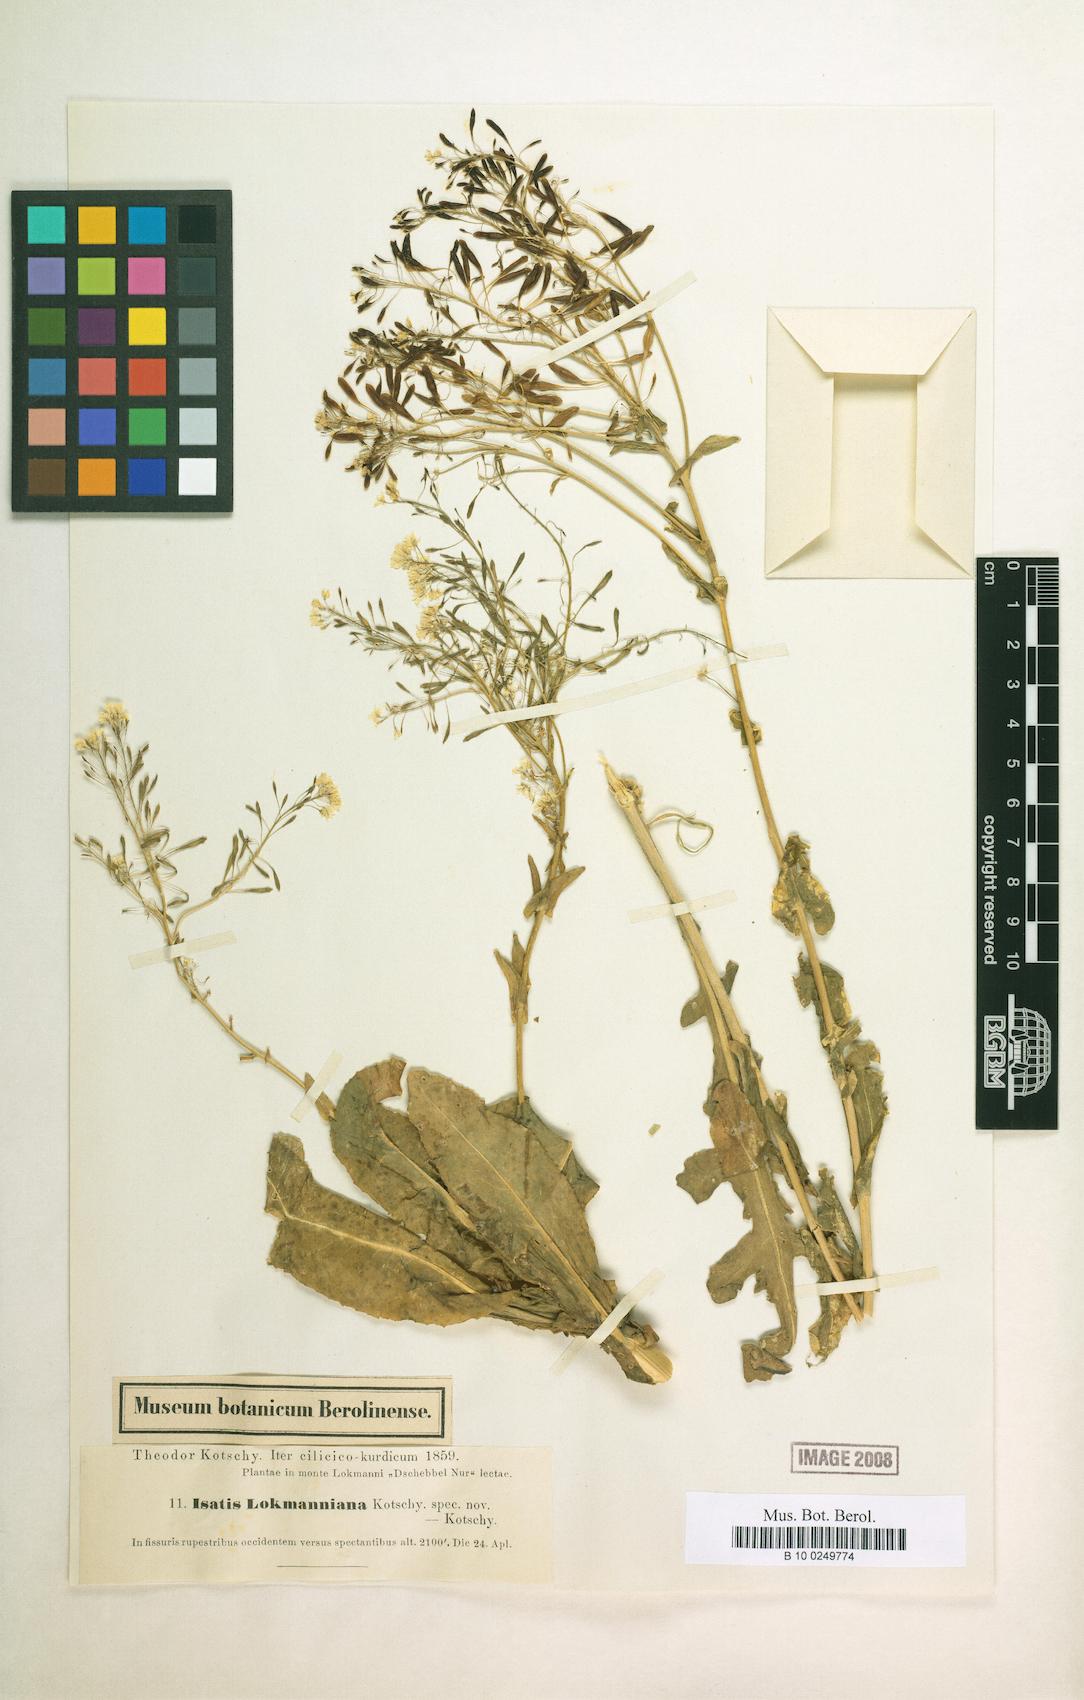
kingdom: Plantae
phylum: Tracheophyta
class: Magnoliopsida
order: Brassicales
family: Brassicaceae
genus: Isatis
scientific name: Isatis lockmanniana
